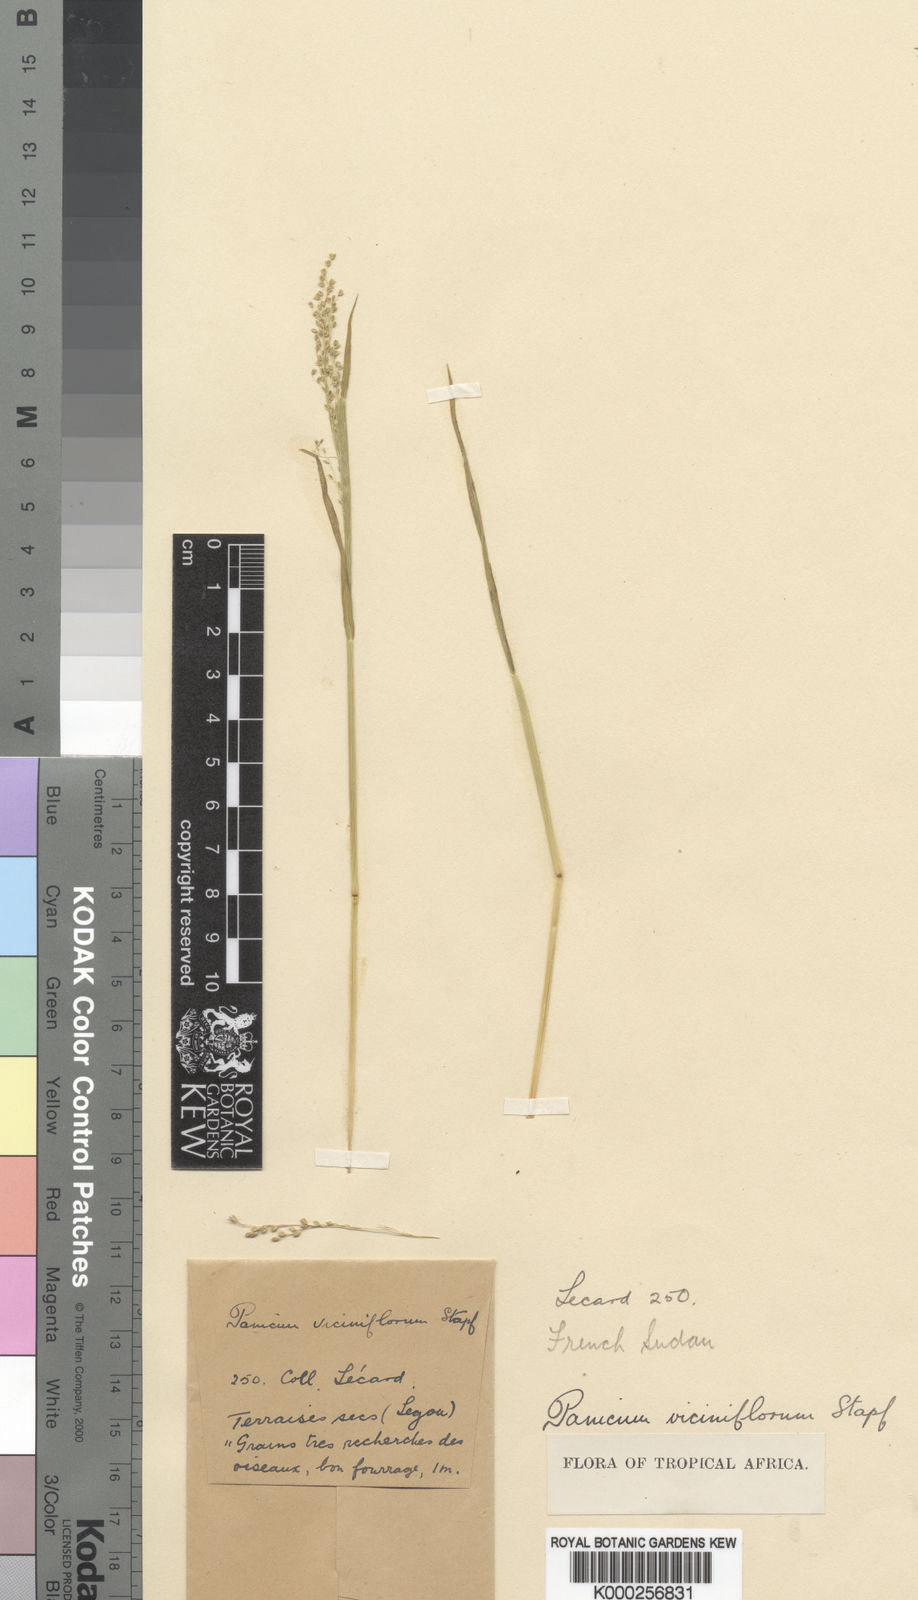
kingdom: Plantae
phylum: Tracheophyta
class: Liliopsida
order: Poales
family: Poaceae
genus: Panicum
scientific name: Panicum curviflorum
